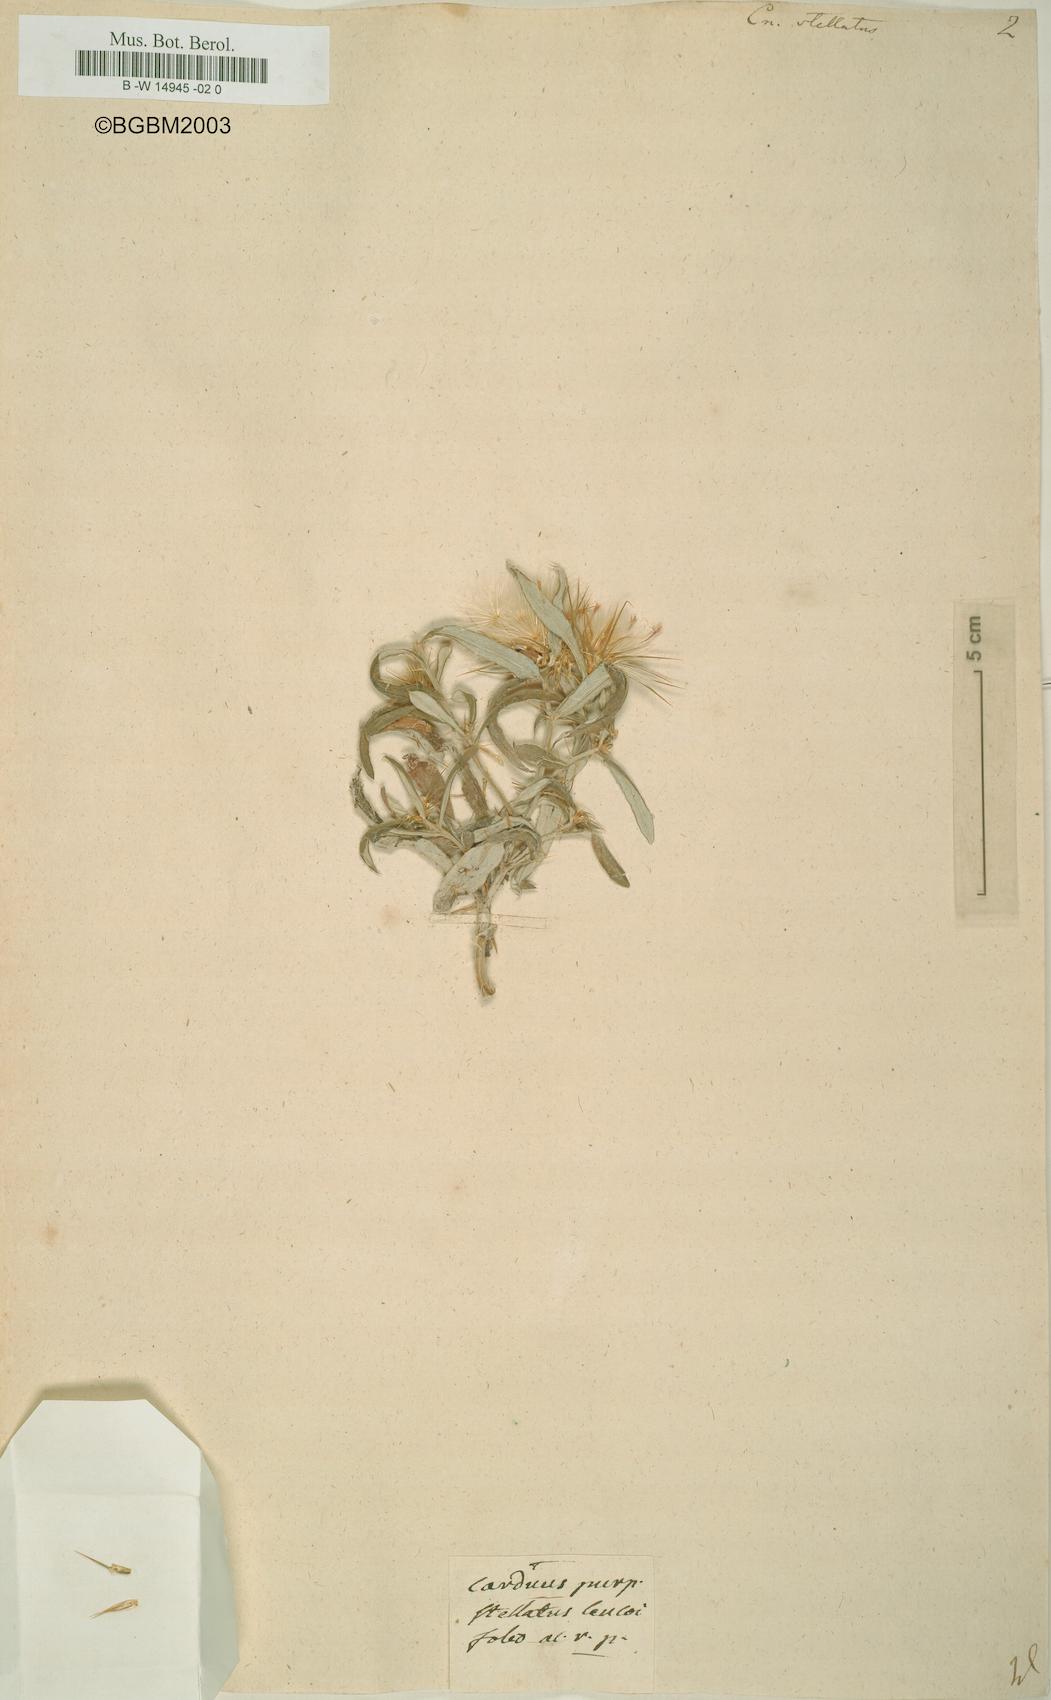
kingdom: Plantae
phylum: Tracheophyta
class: Magnoliopsida
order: Asterales
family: Asteraceae
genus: Ptilostemon
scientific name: Ptilostemon stellatus
